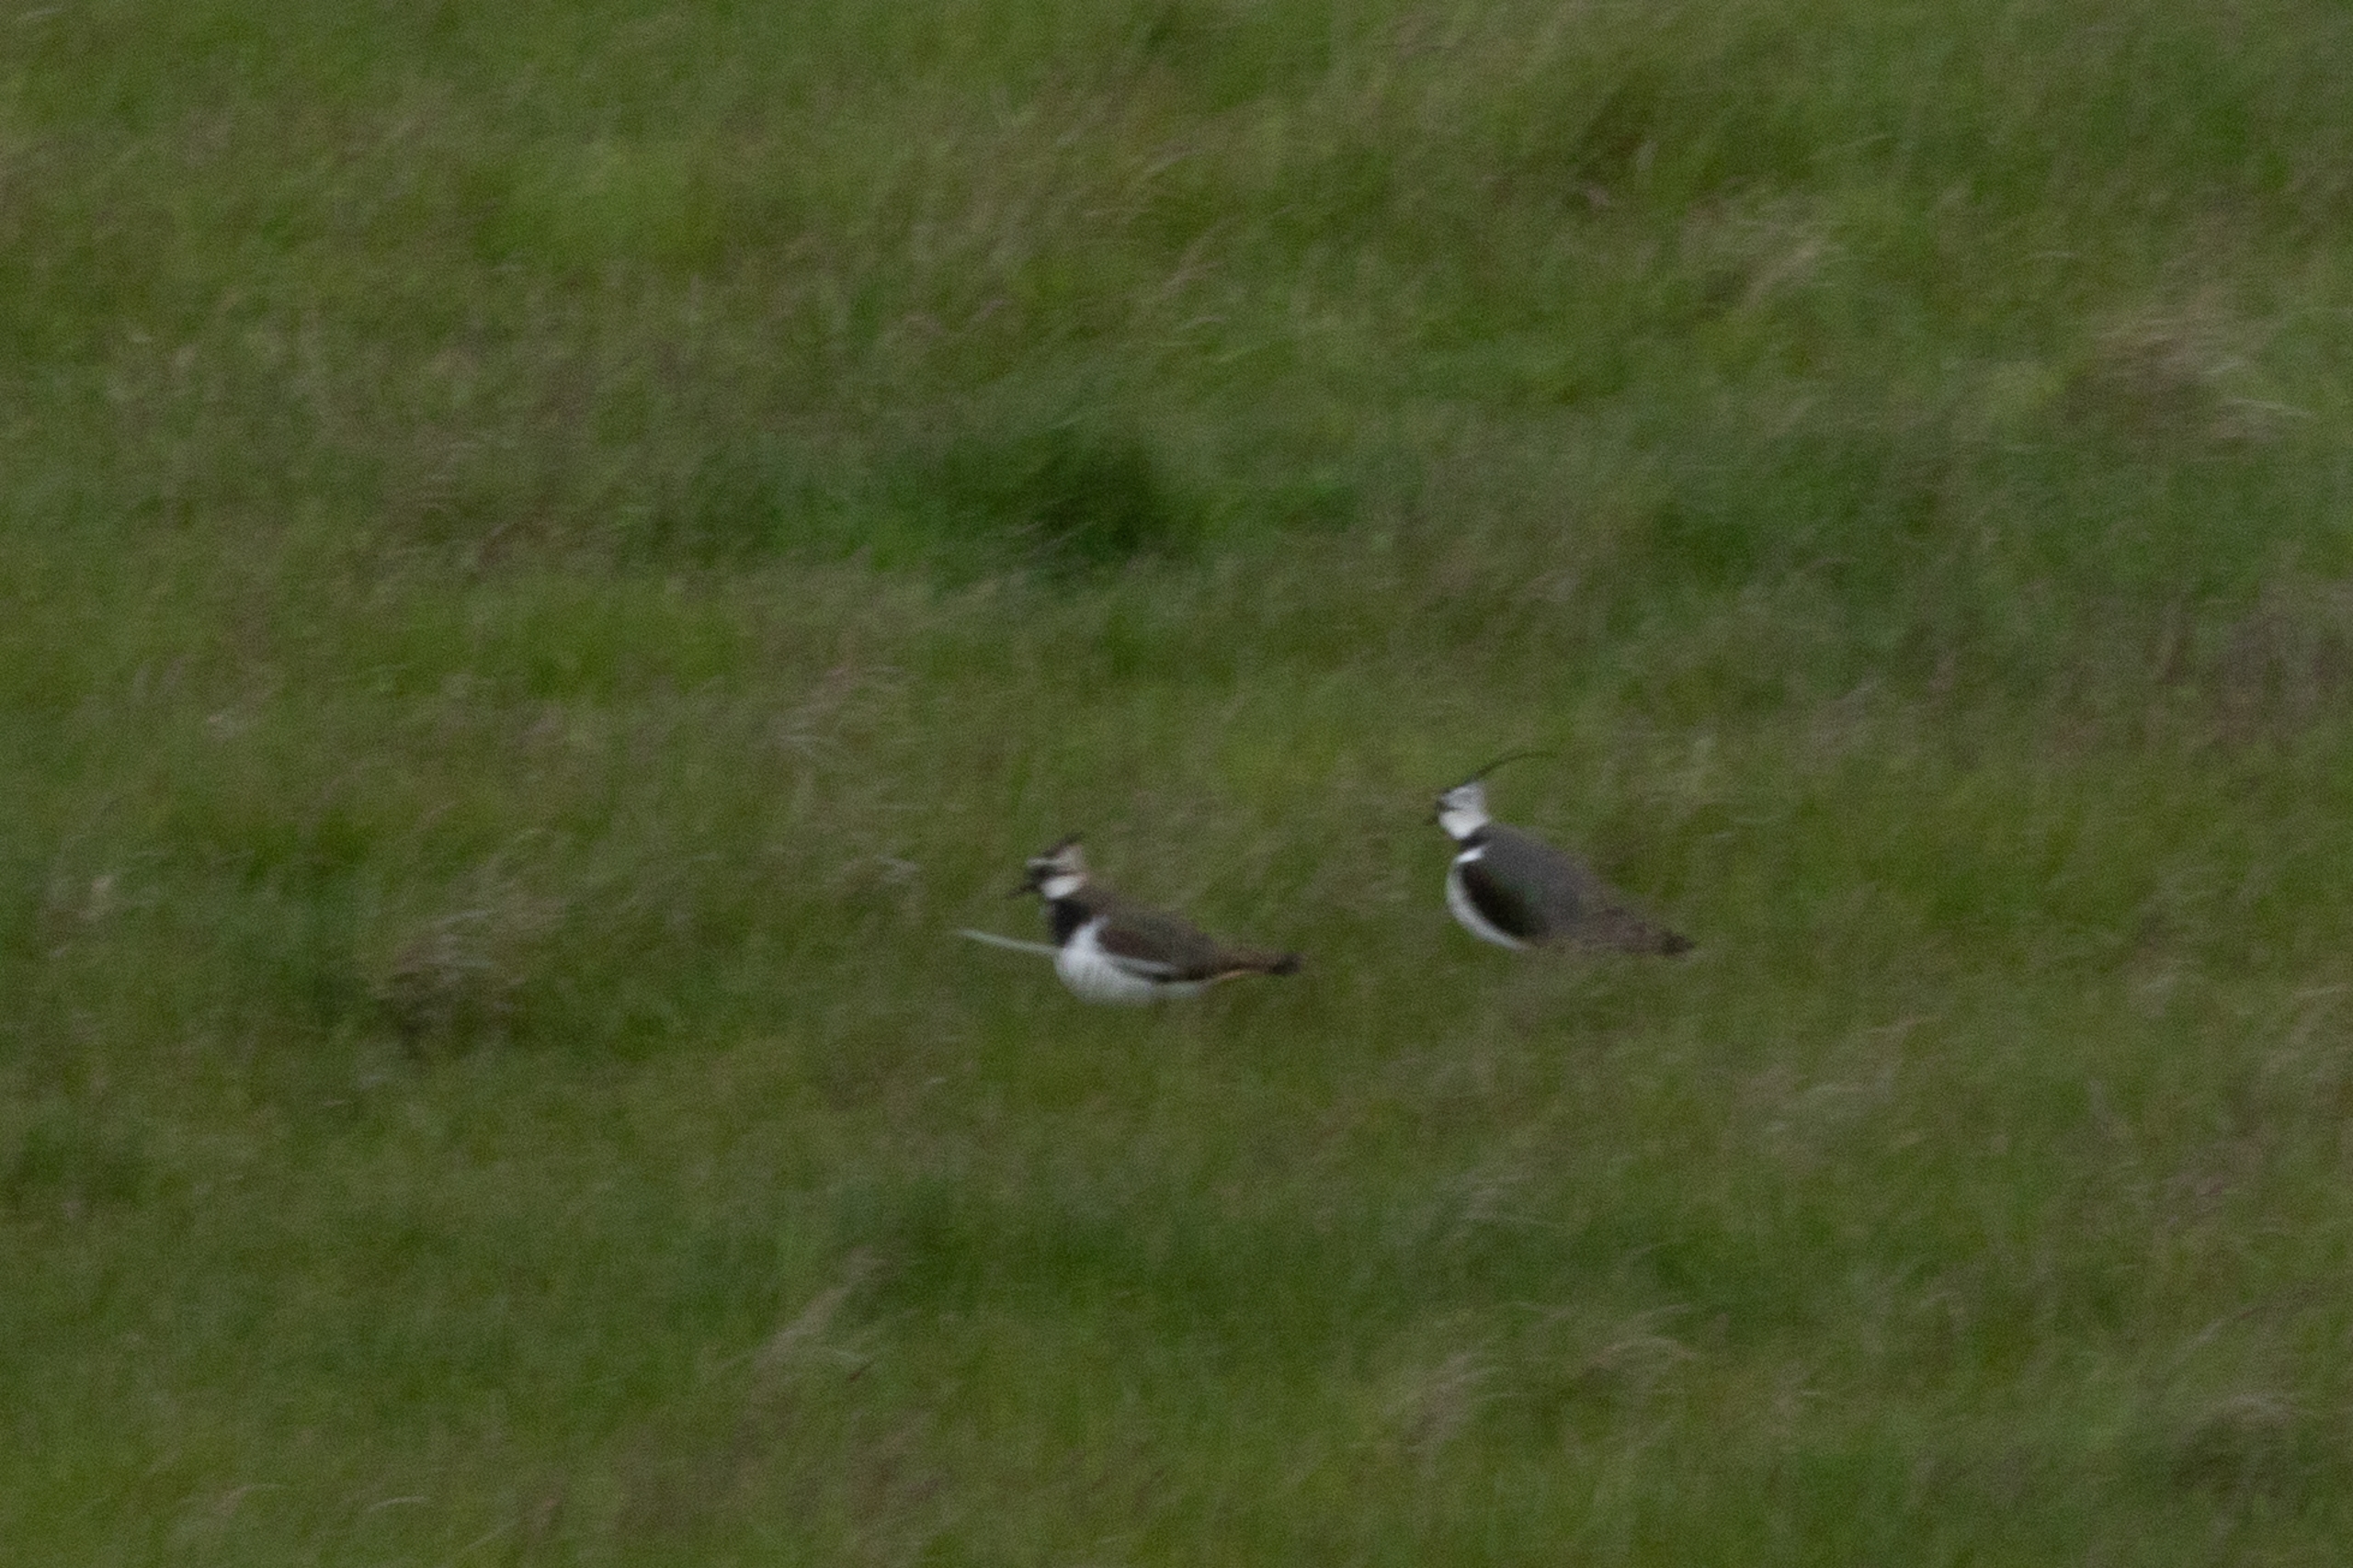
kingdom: Animalia
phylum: Chordata
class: Aves
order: Charadriiformes
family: Charadriidae
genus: Vanellus
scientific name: Vanellus vanellus
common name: Vibe
